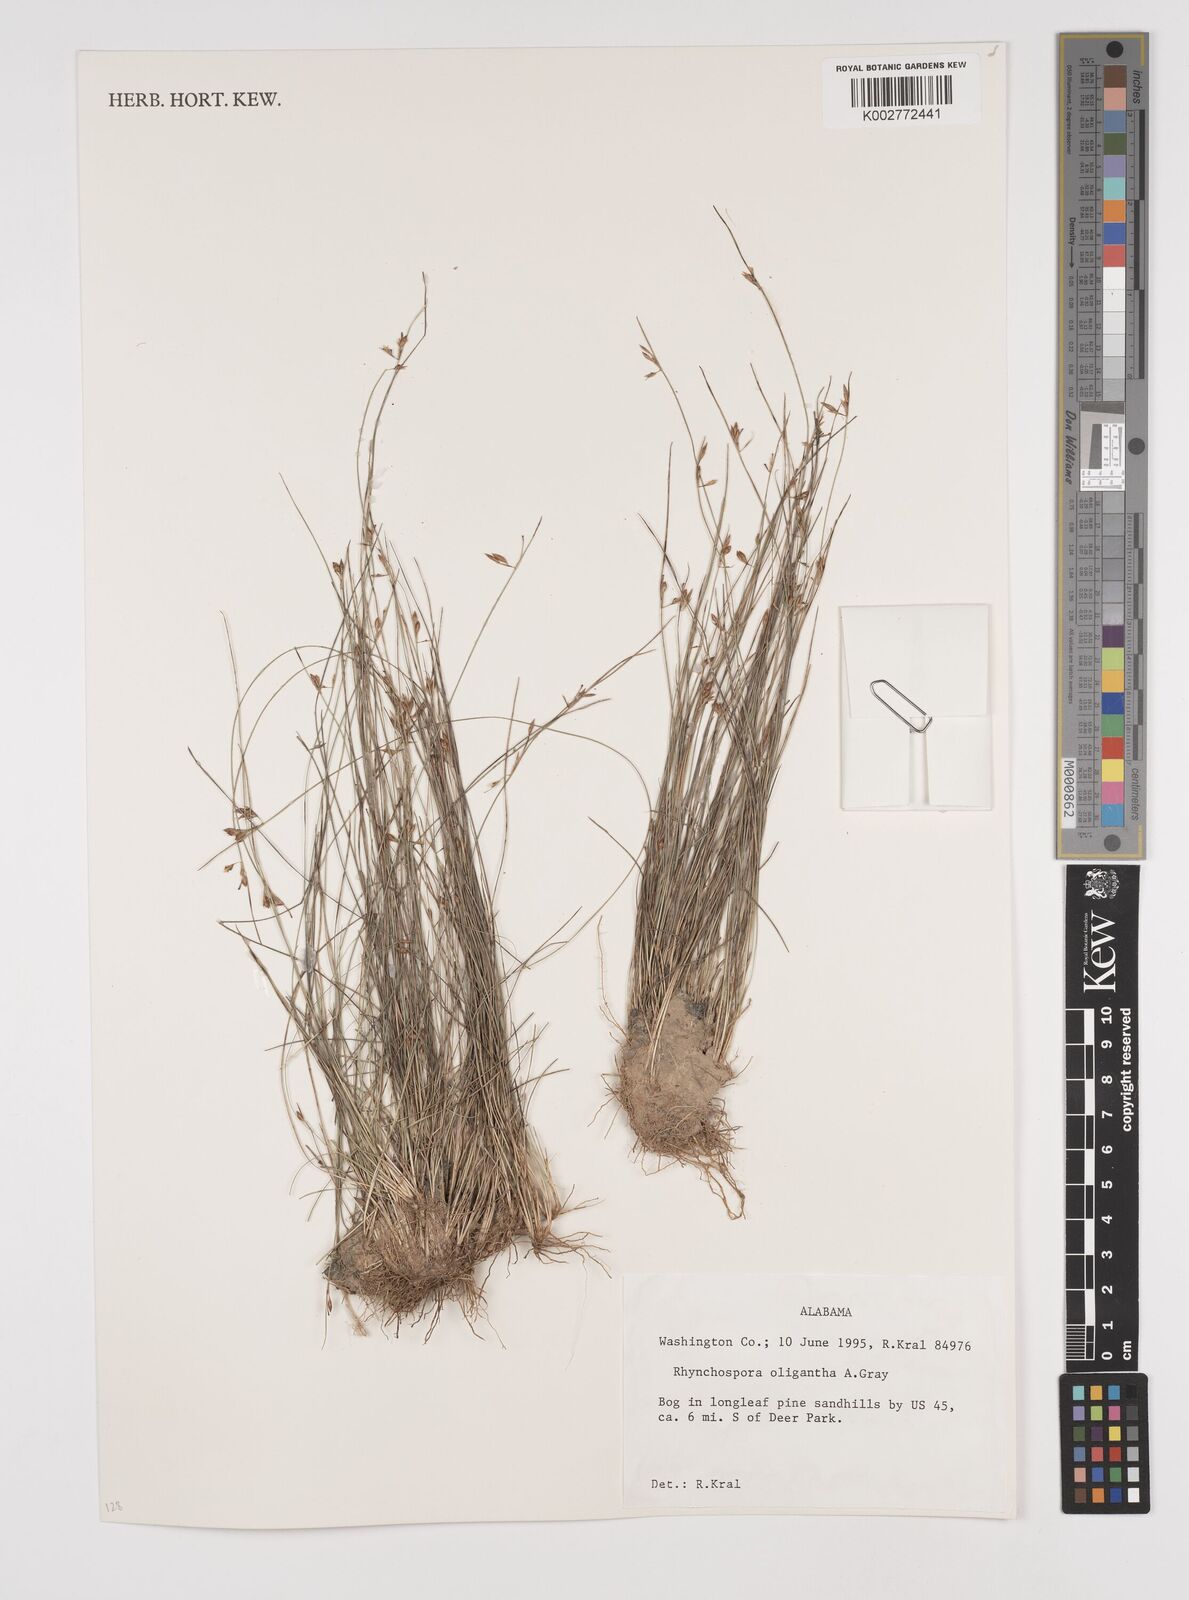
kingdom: Plantae
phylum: Tracheophyta
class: Liliopsida
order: Poales
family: Cyperaceae
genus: Rhynchospora
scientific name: Rhynchospora oligantha
